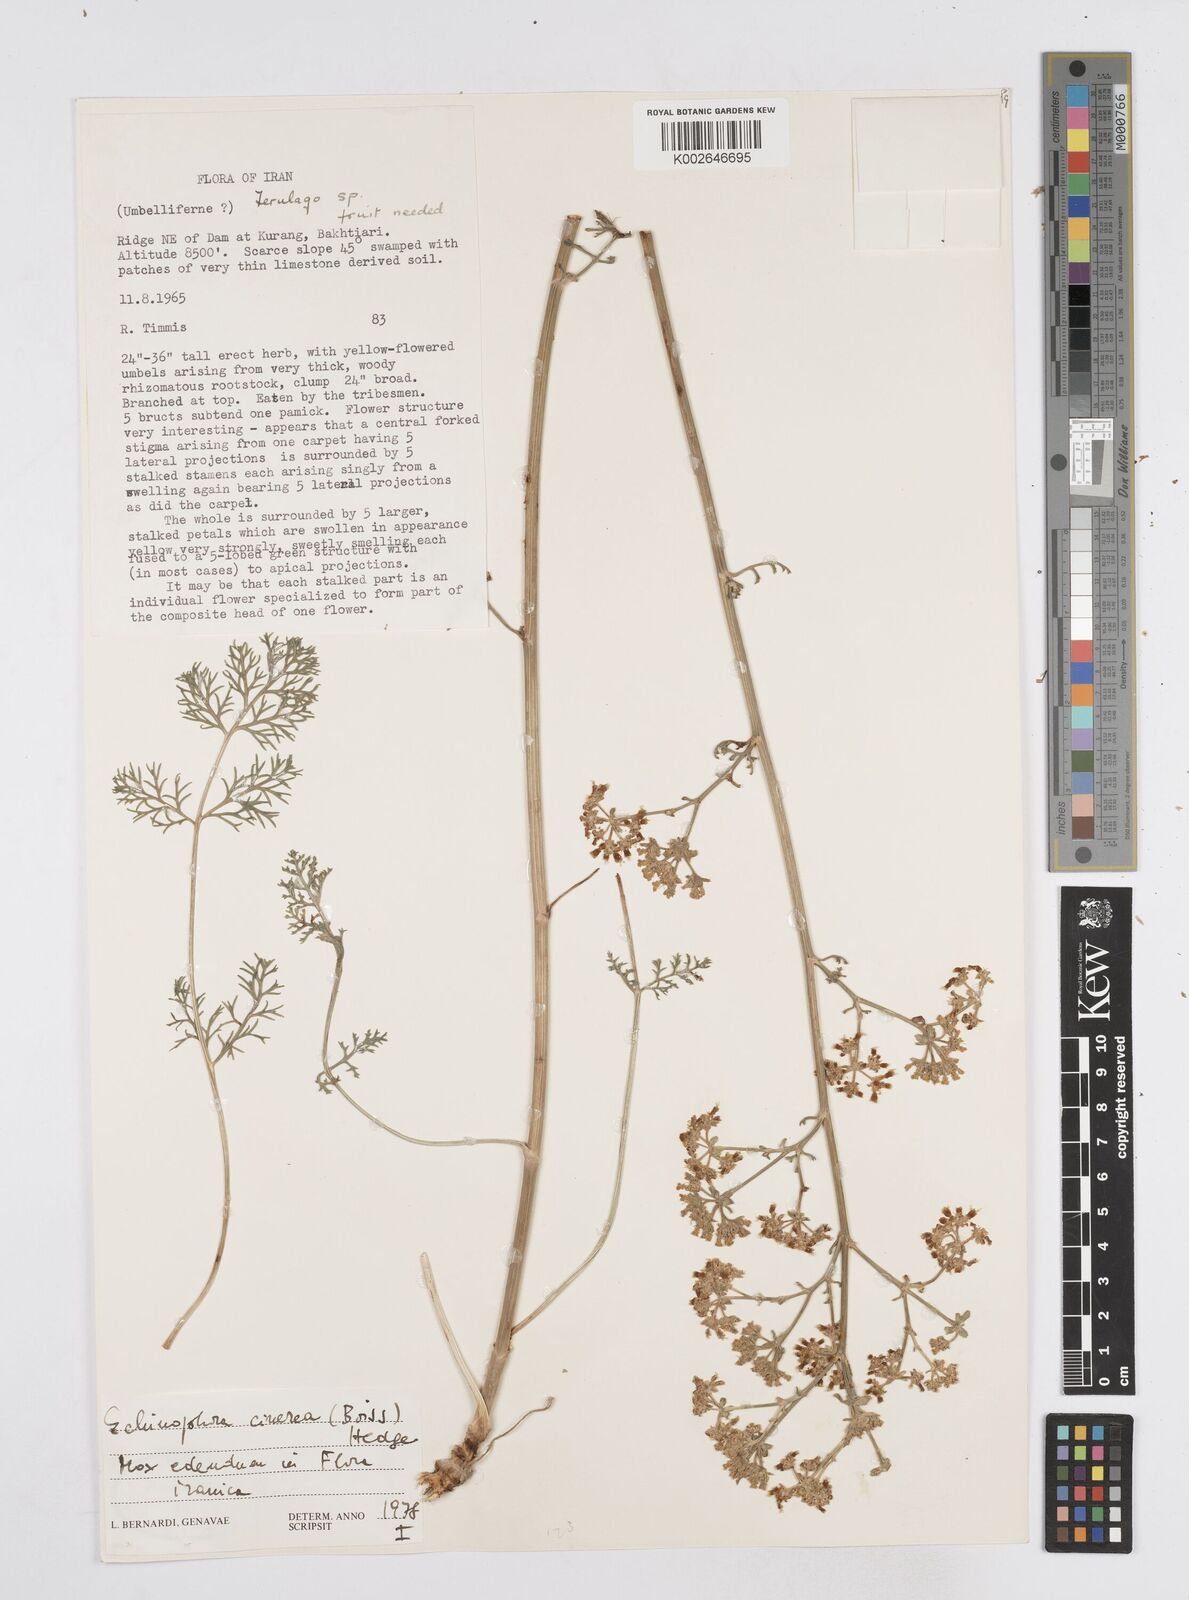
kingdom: Plantae
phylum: Tracheophyta
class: Magnoliopsida
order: Apiales
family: Apiaceae
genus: Echinophora
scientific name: Echinophora cinerea
